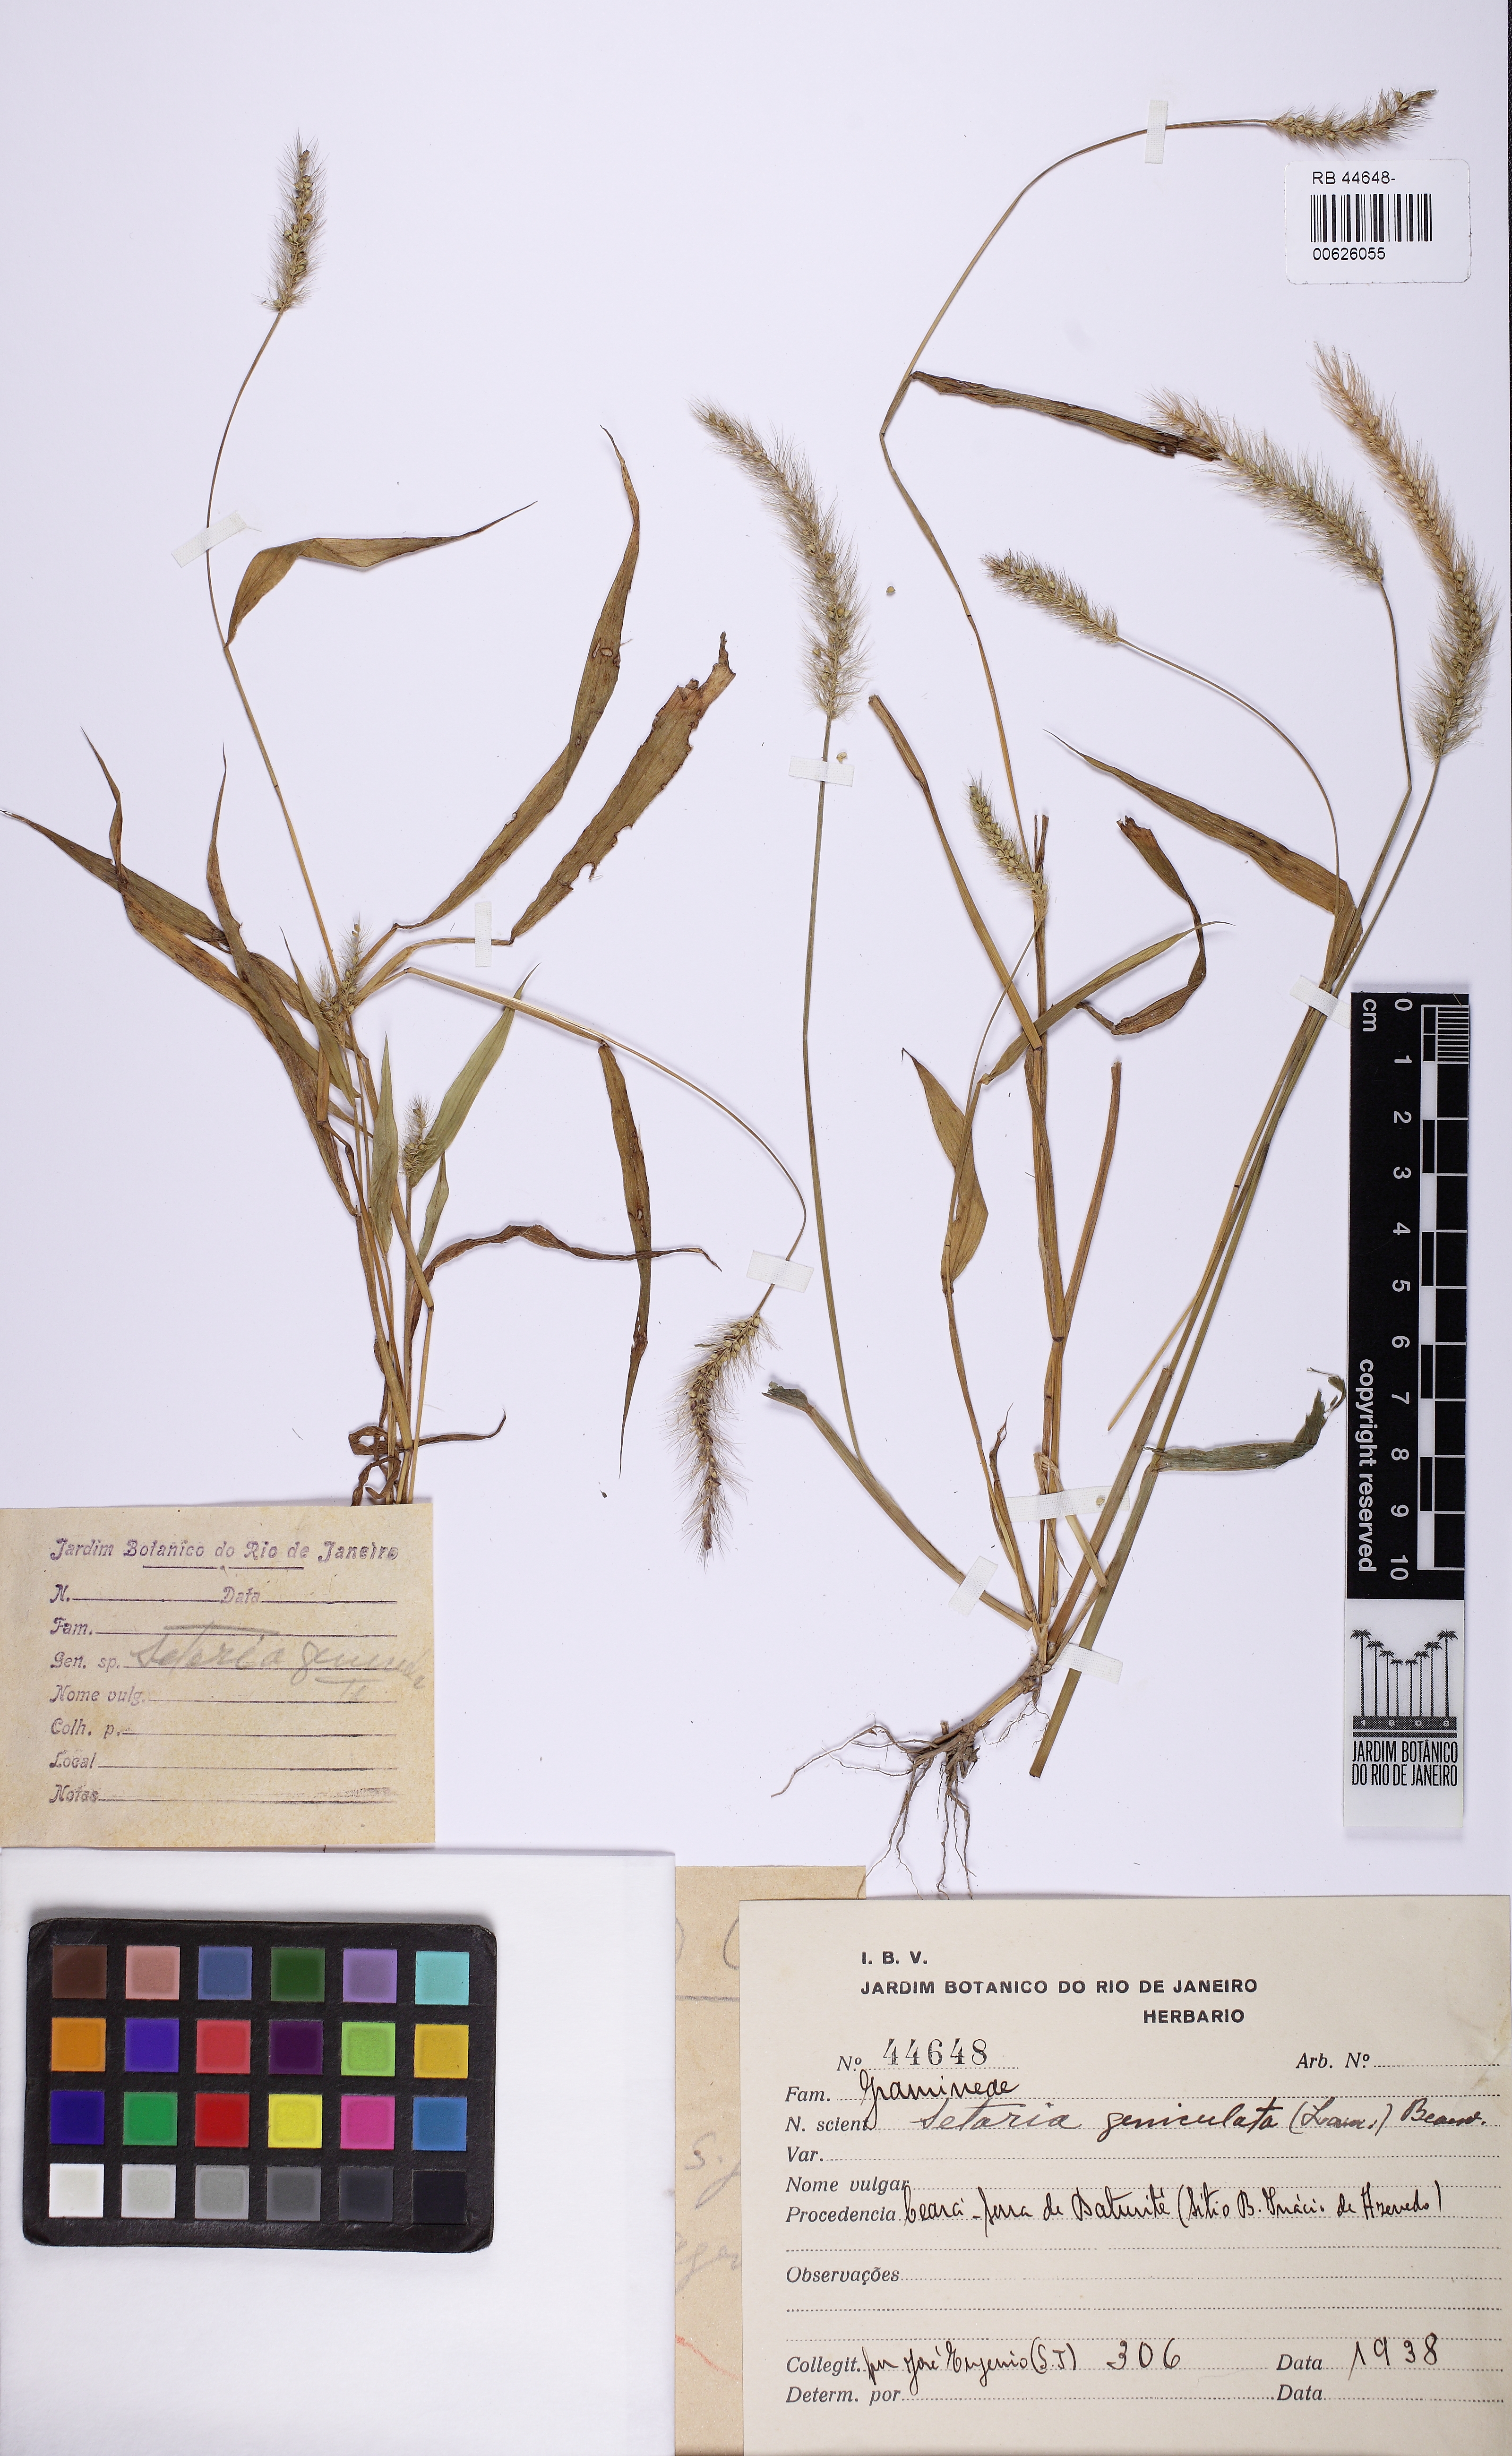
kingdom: Plantae
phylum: Tracheophyta
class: Liliopsida
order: Poales
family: Poaceae
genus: Setaria
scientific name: Setaria parviflora
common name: Knotroot bristle-grass
